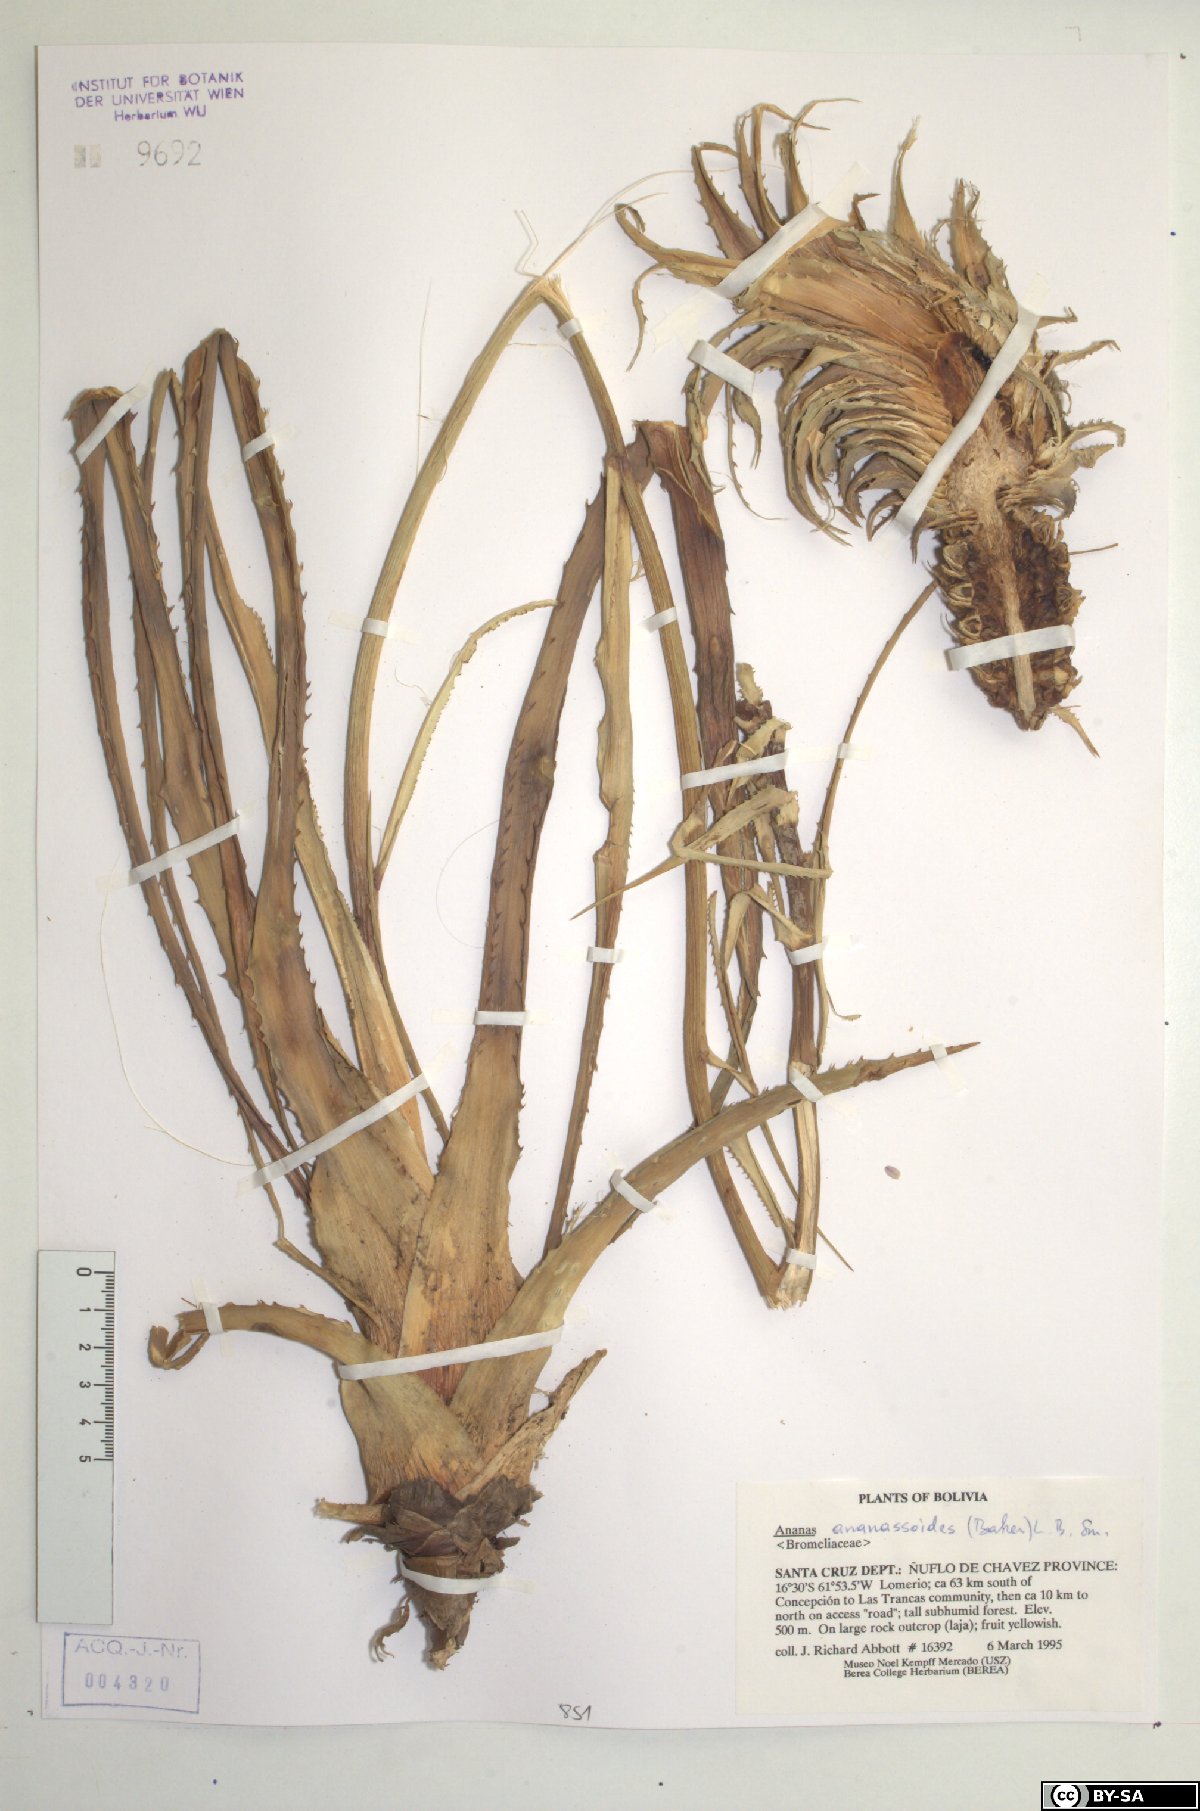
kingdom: Plantae
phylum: Tracheophyta
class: Liliopsida
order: Poales
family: Bromeliaceae
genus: Ananas
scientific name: Ananas comosus
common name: Pineapple
